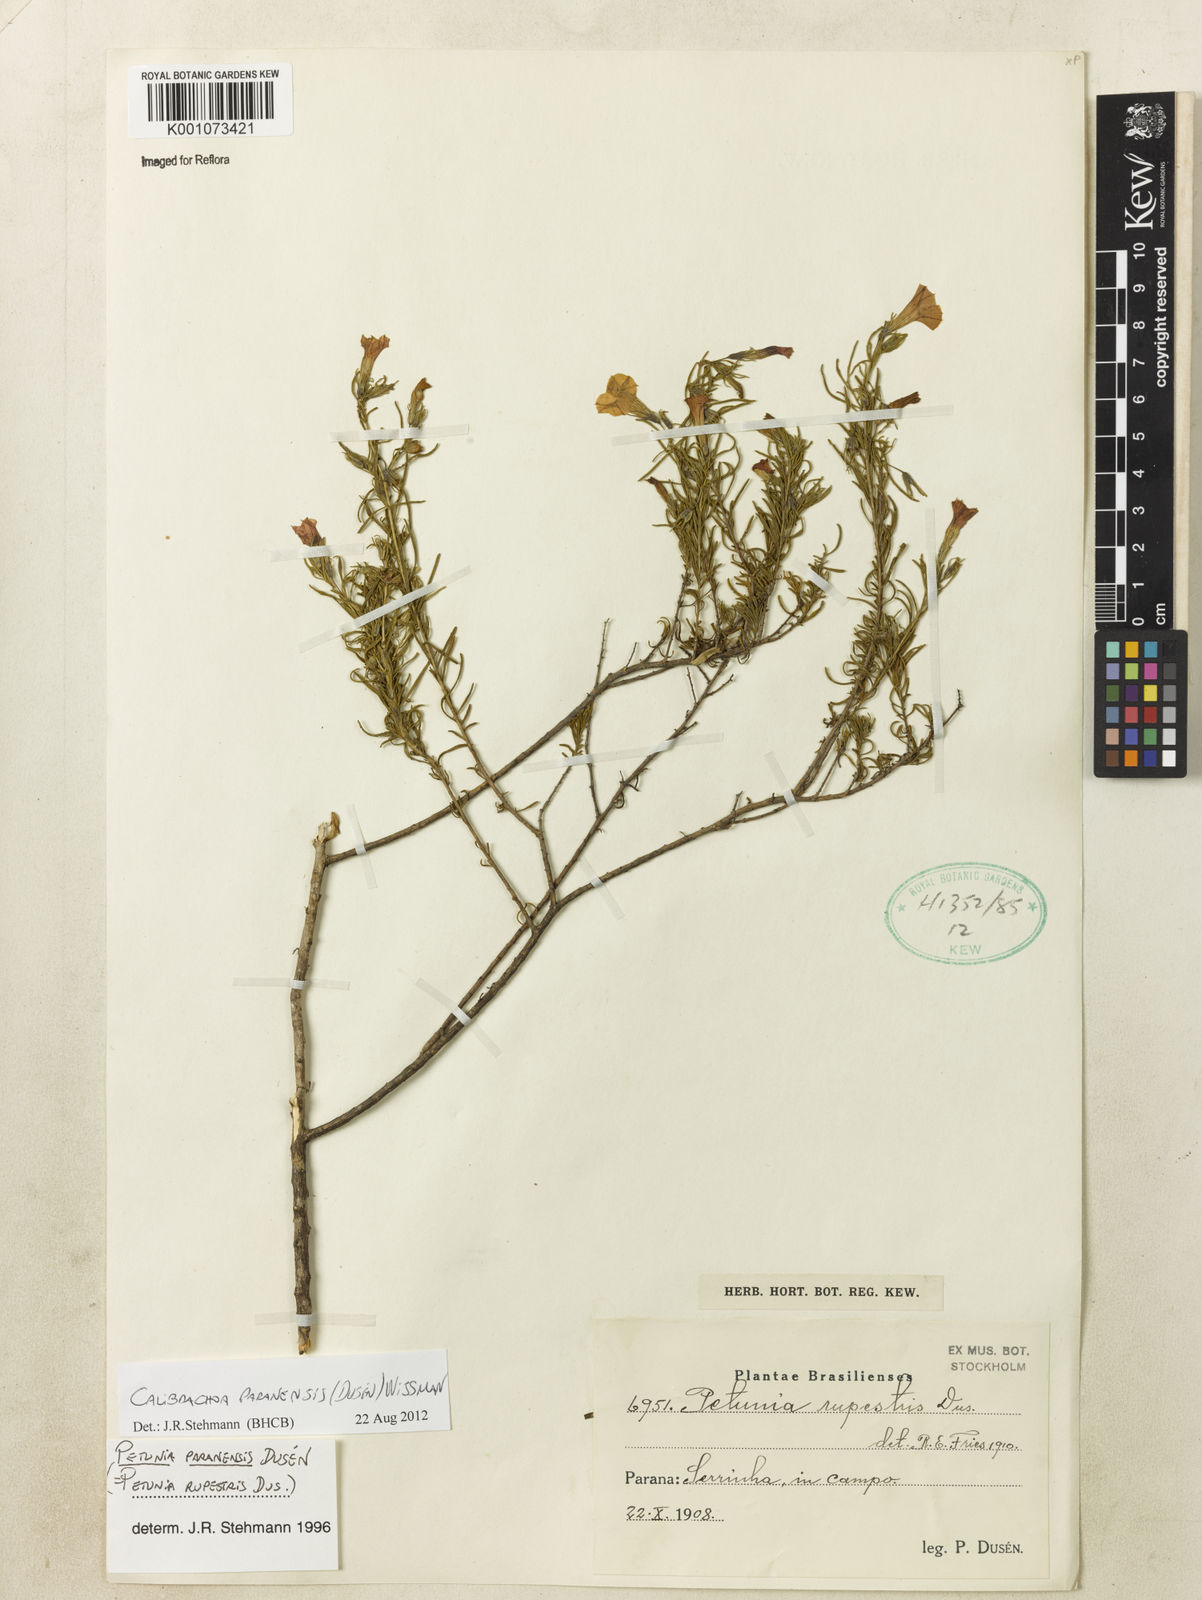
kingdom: Plantae
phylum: Tracheophyta
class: Magnoliopsida
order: Solanales
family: Solanaceae
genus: Calibrachoa
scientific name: Calibrachoa
